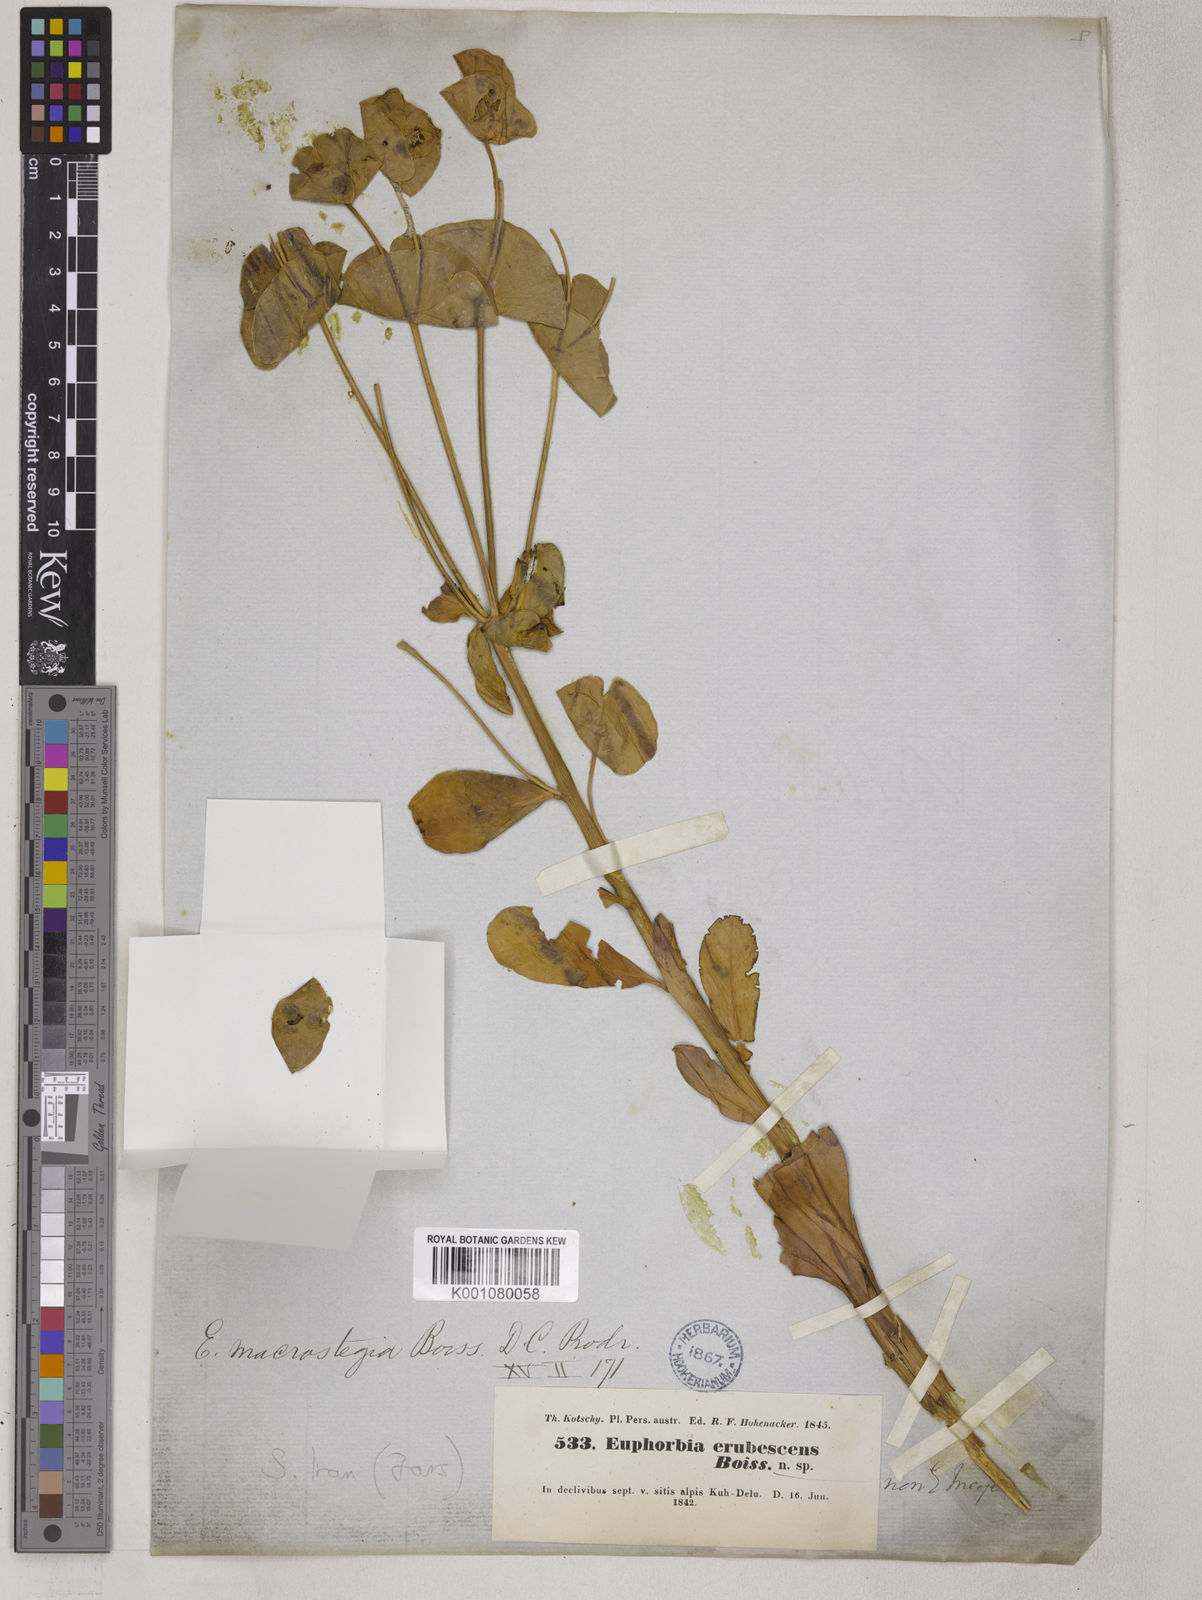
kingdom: Plantae
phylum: Tracheophyta
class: Magnoliopsida
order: Malpighiales
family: Euphorbiaceae
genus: Euphorbia
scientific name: Euphorbia erubescens
